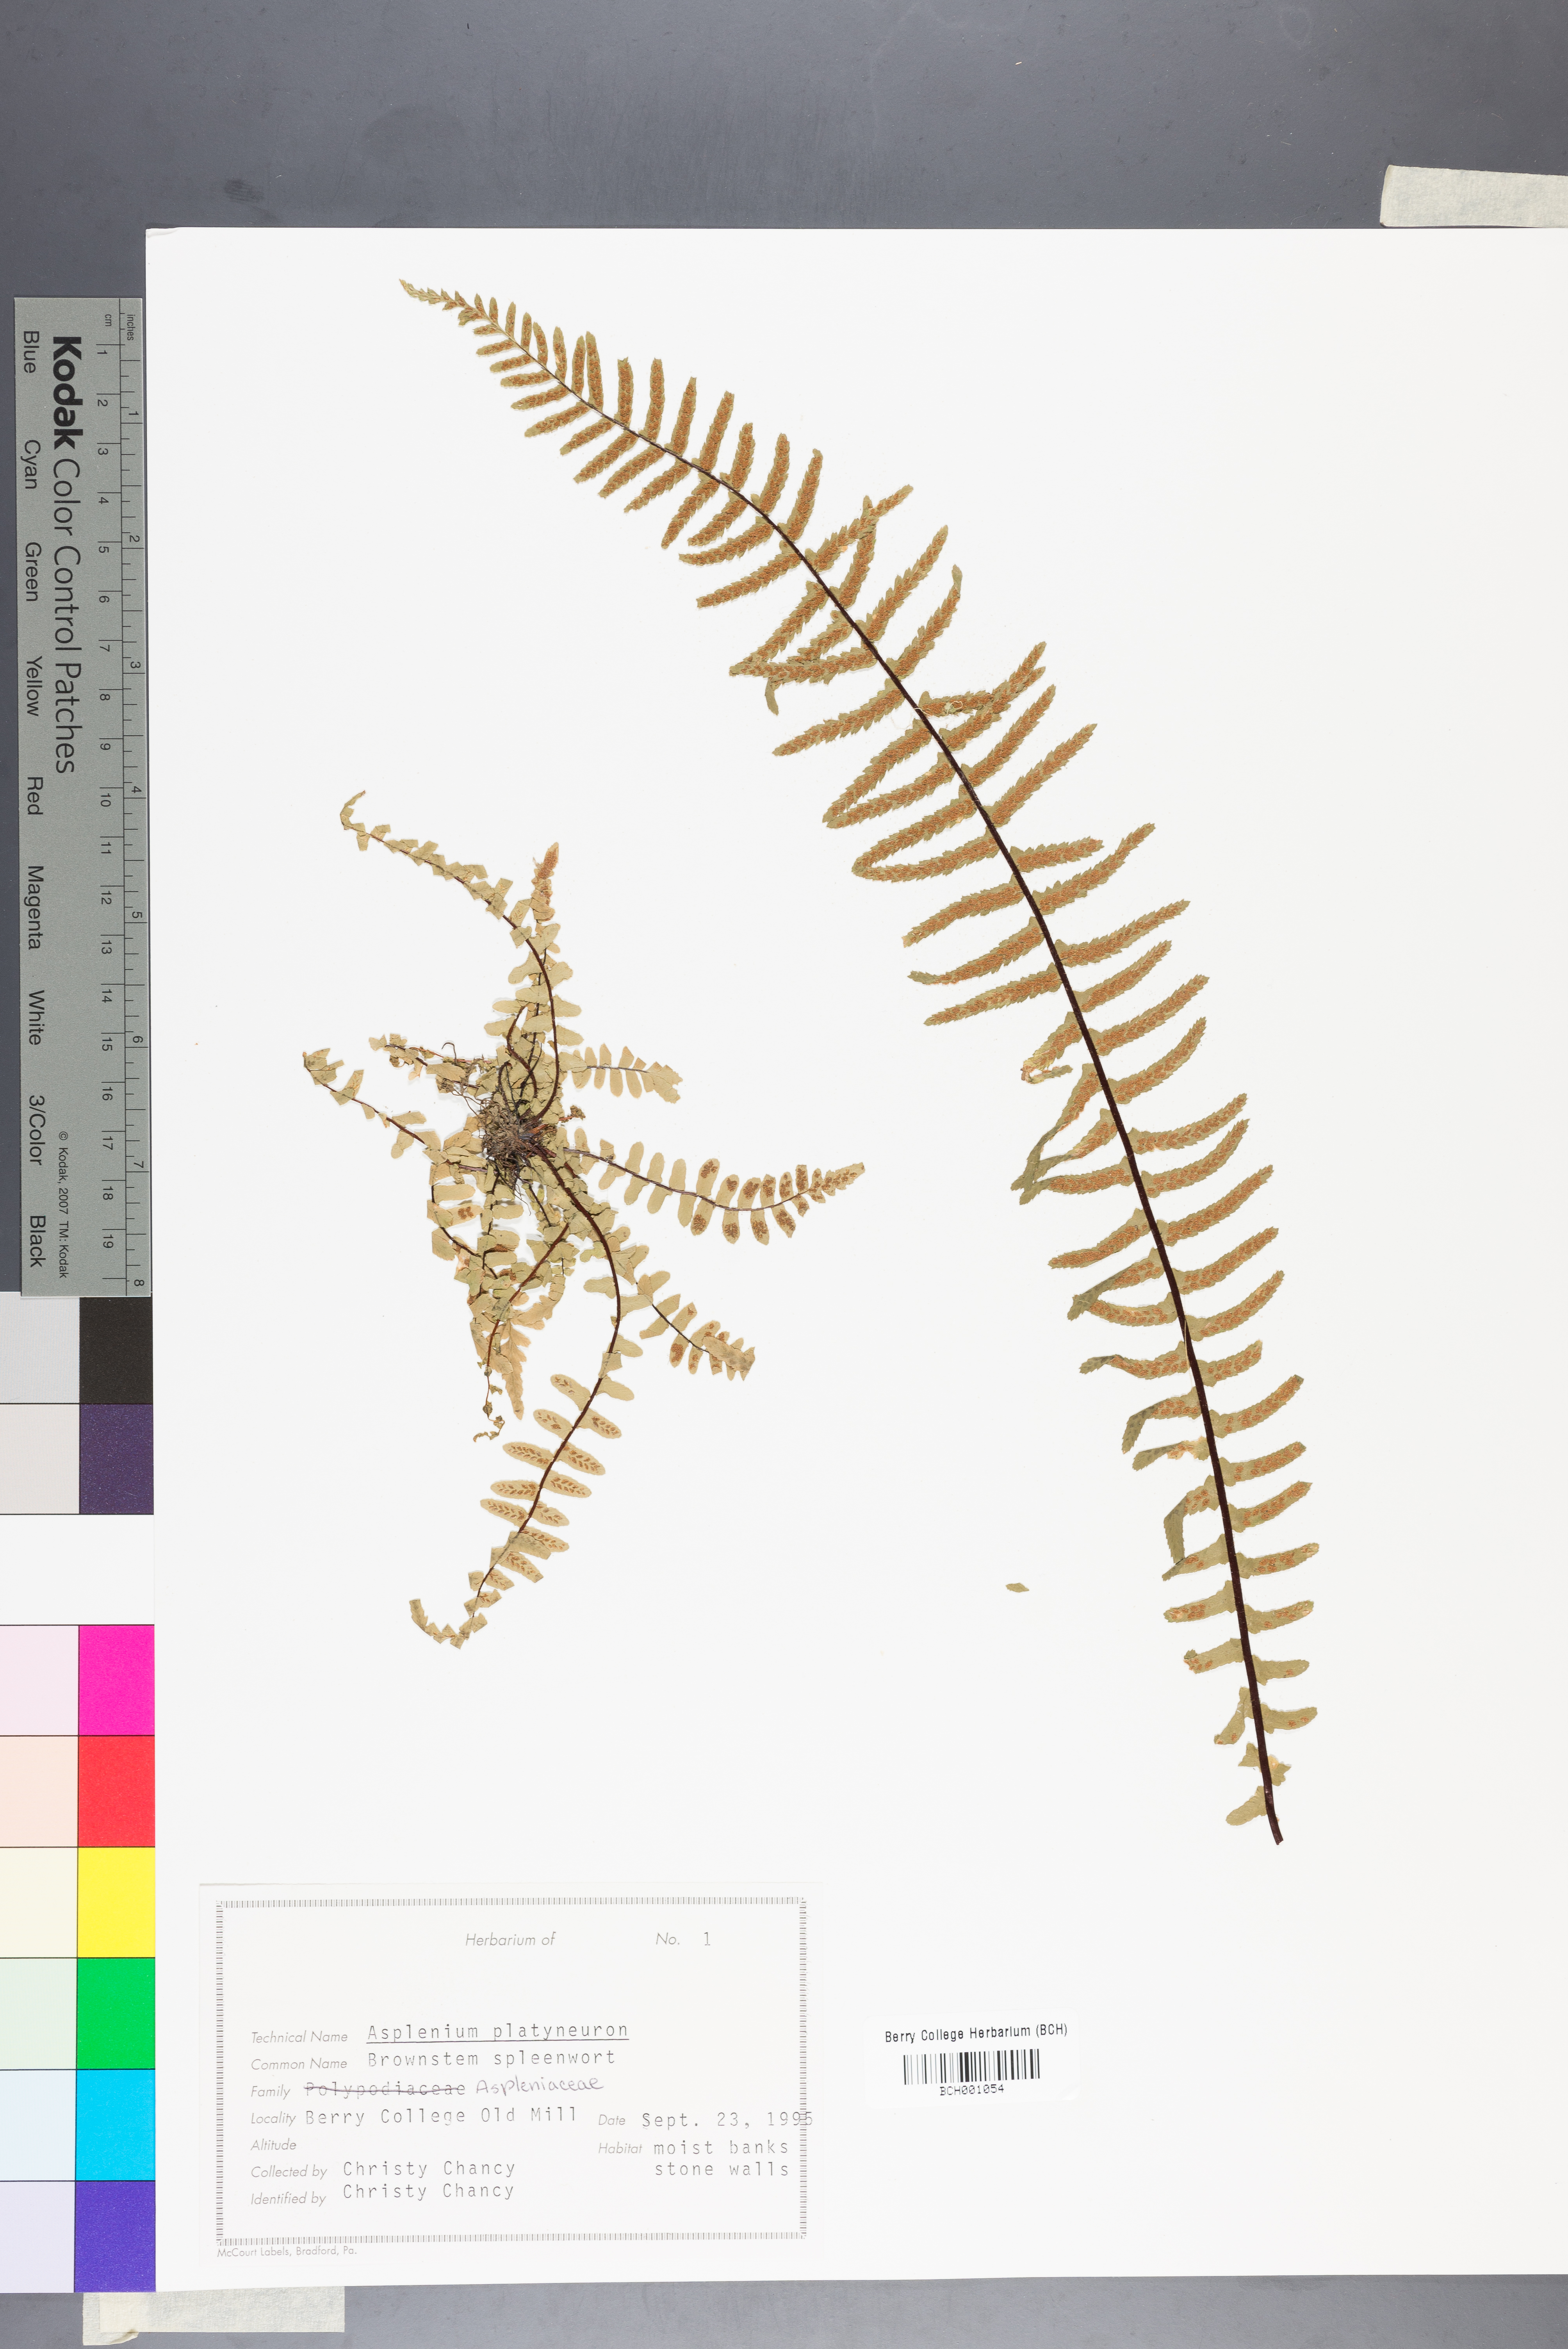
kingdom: Plantae
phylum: Tracheophyta
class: Polypodiopsida
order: Polypodiales
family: Aspleniaceae
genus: Asplenium
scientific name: Asplenium platyneuron
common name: Ebony spleenwort
